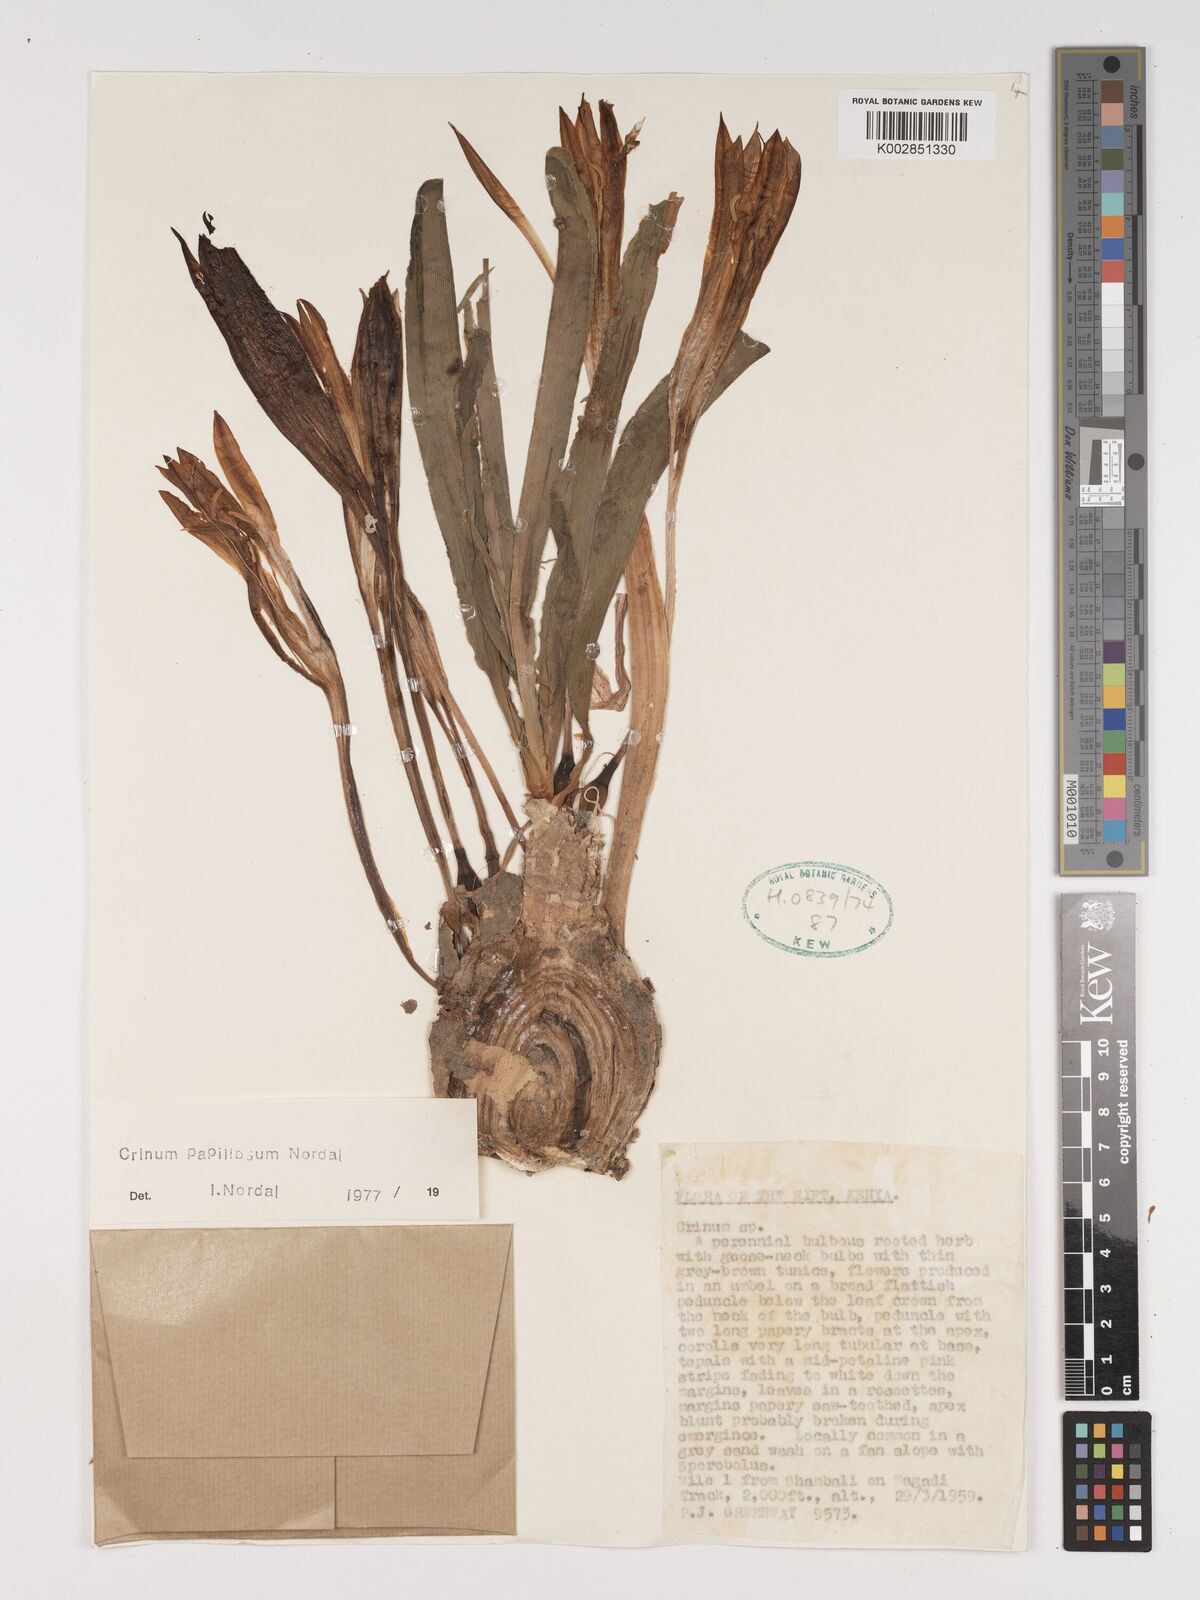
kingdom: Plantae
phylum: Tracheophyta
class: Liliopsida
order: Asparagales
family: Amaryllidaceae
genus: Crinum
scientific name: Crinum papillosum
